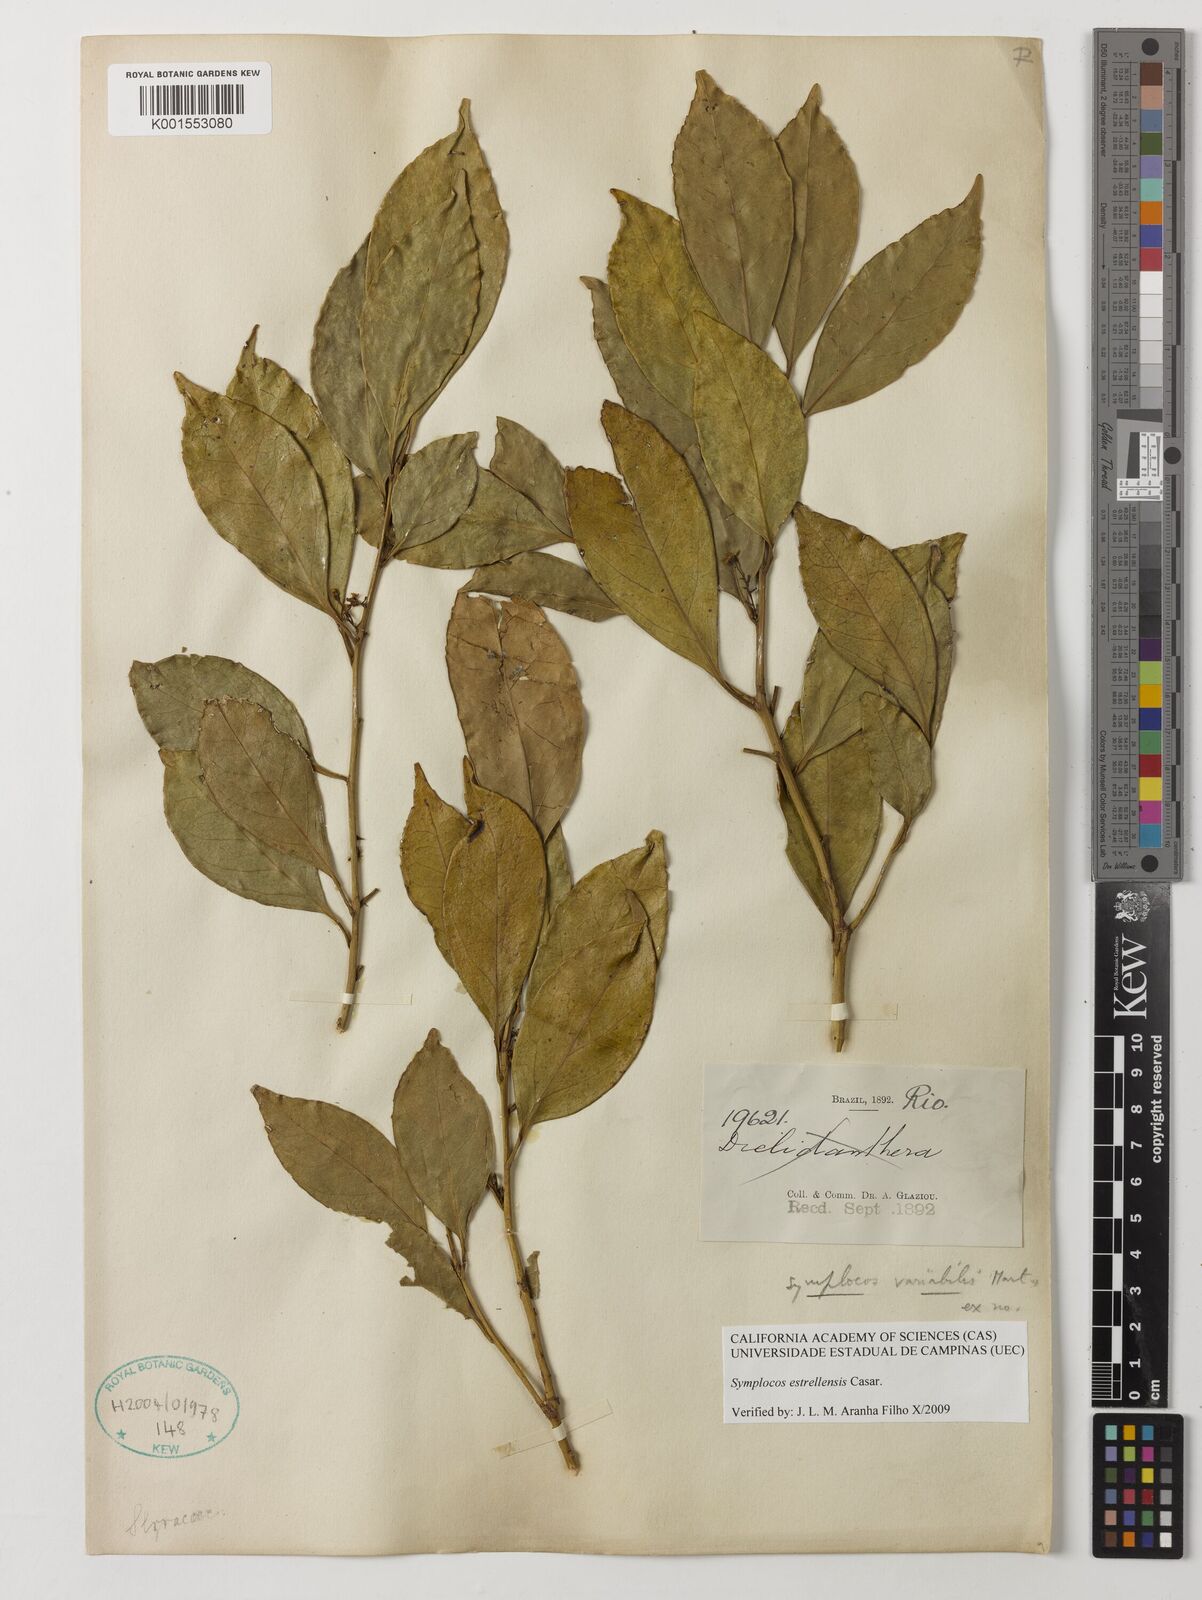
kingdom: Plantae
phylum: Tracheophyta
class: Magnoliopsida
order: Ericales
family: Symplocaceae
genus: Symplocos
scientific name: Symplocos estrellensis
